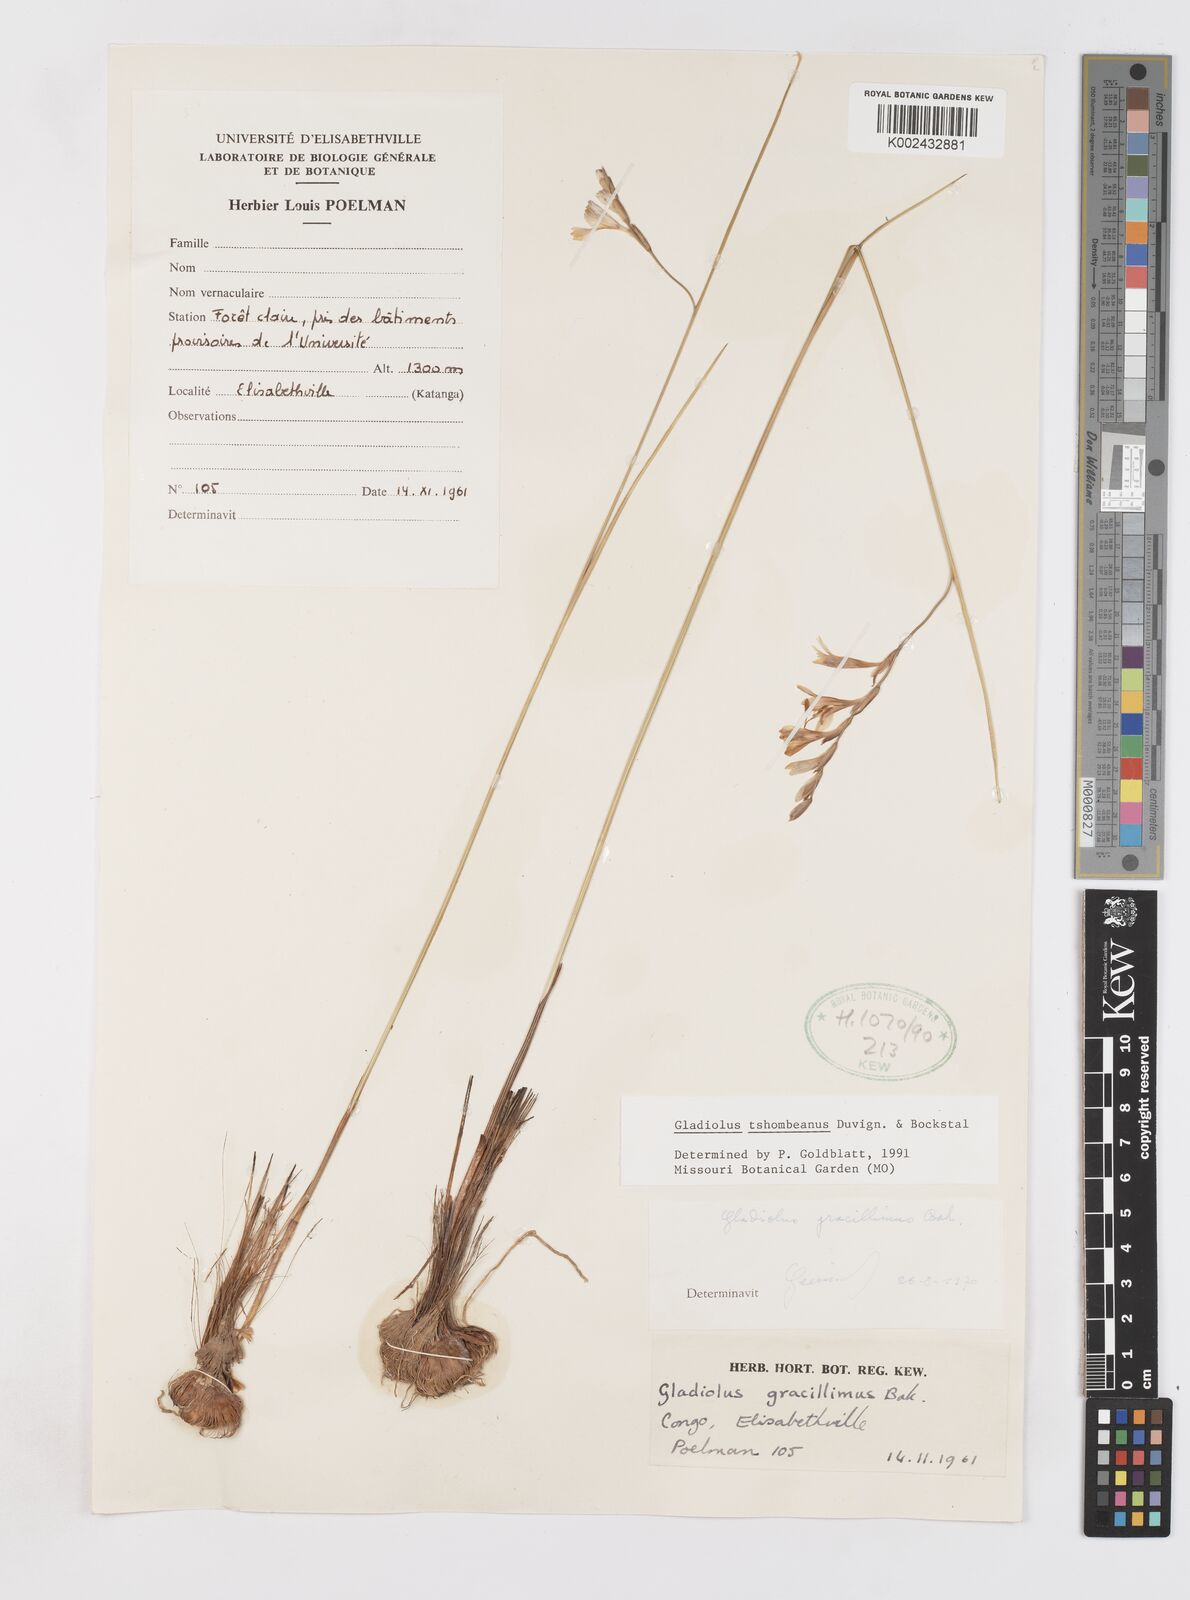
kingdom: Plantae
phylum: Tracheophyta
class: Liliopsida
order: Asparagales
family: Iridaceae
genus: Gladiolus
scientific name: Gladiolus tshombeanus
